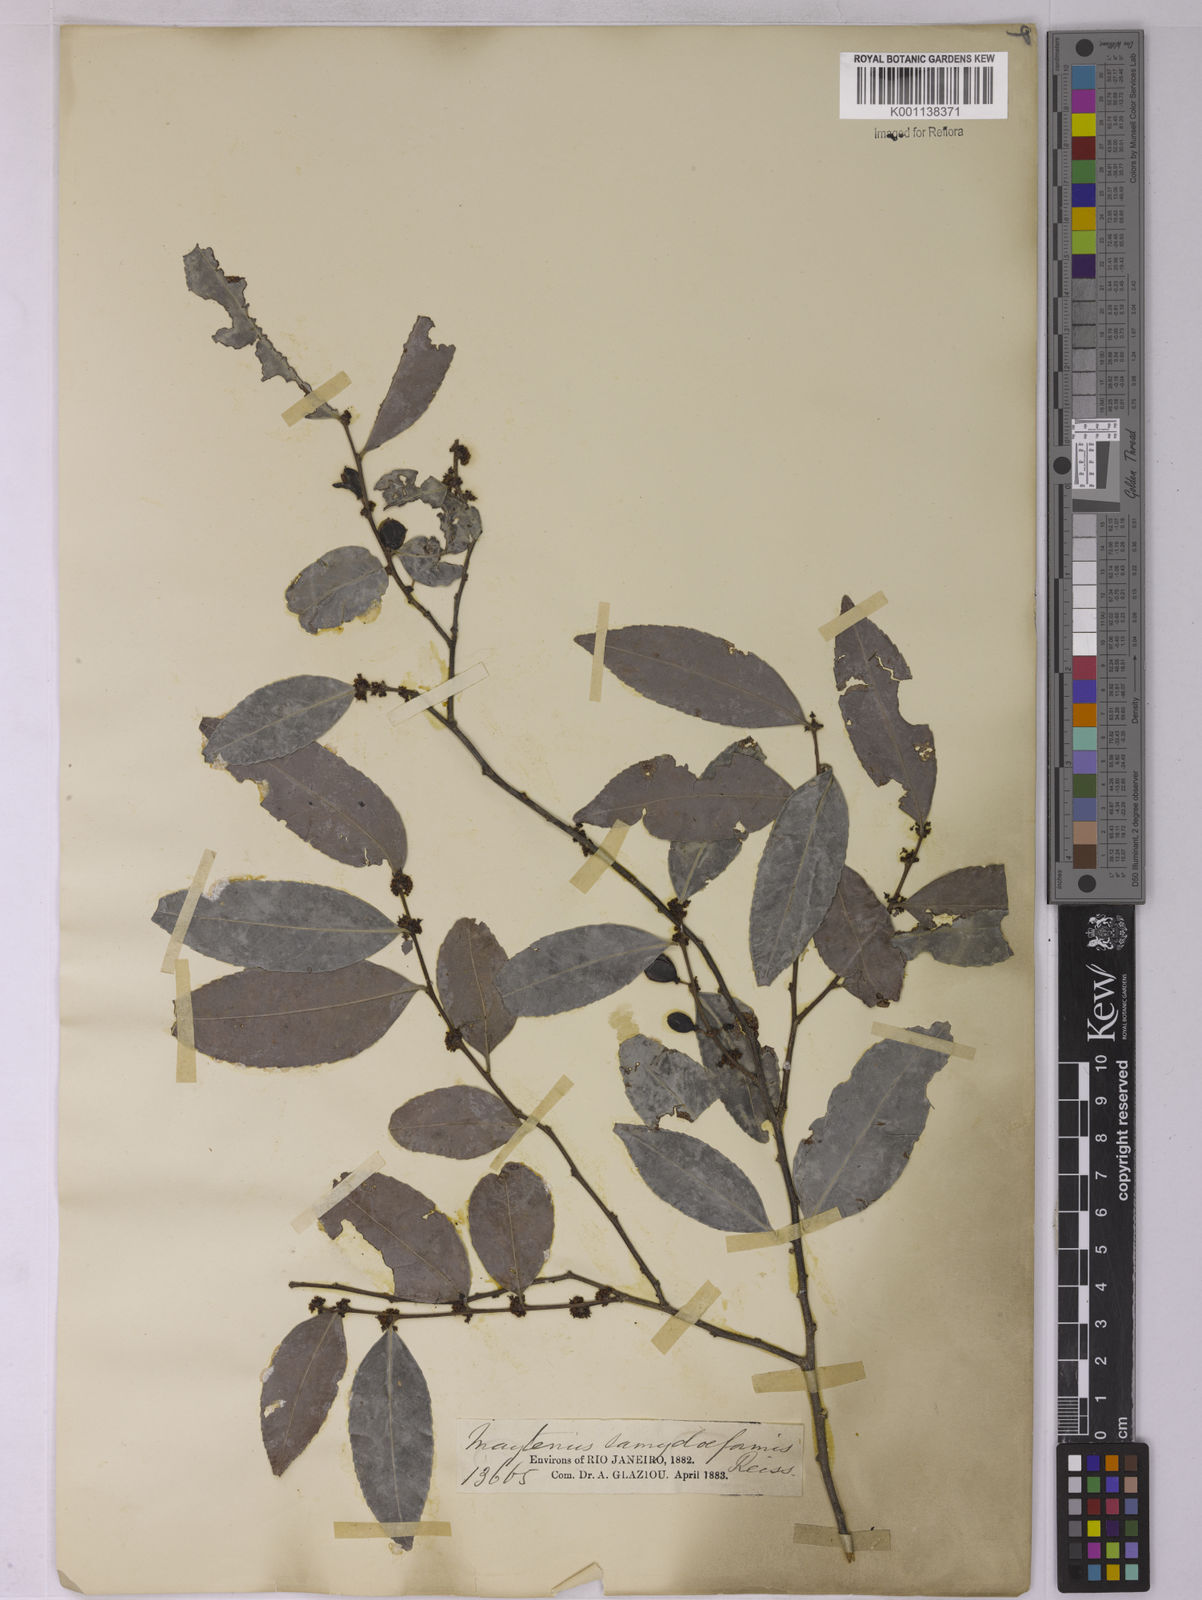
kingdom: Plantae
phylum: Tracheophyta
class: Magnoliopsida
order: Celastrales
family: Celastraceae
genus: Monteverdia
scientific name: Monteverdia samydiformis
